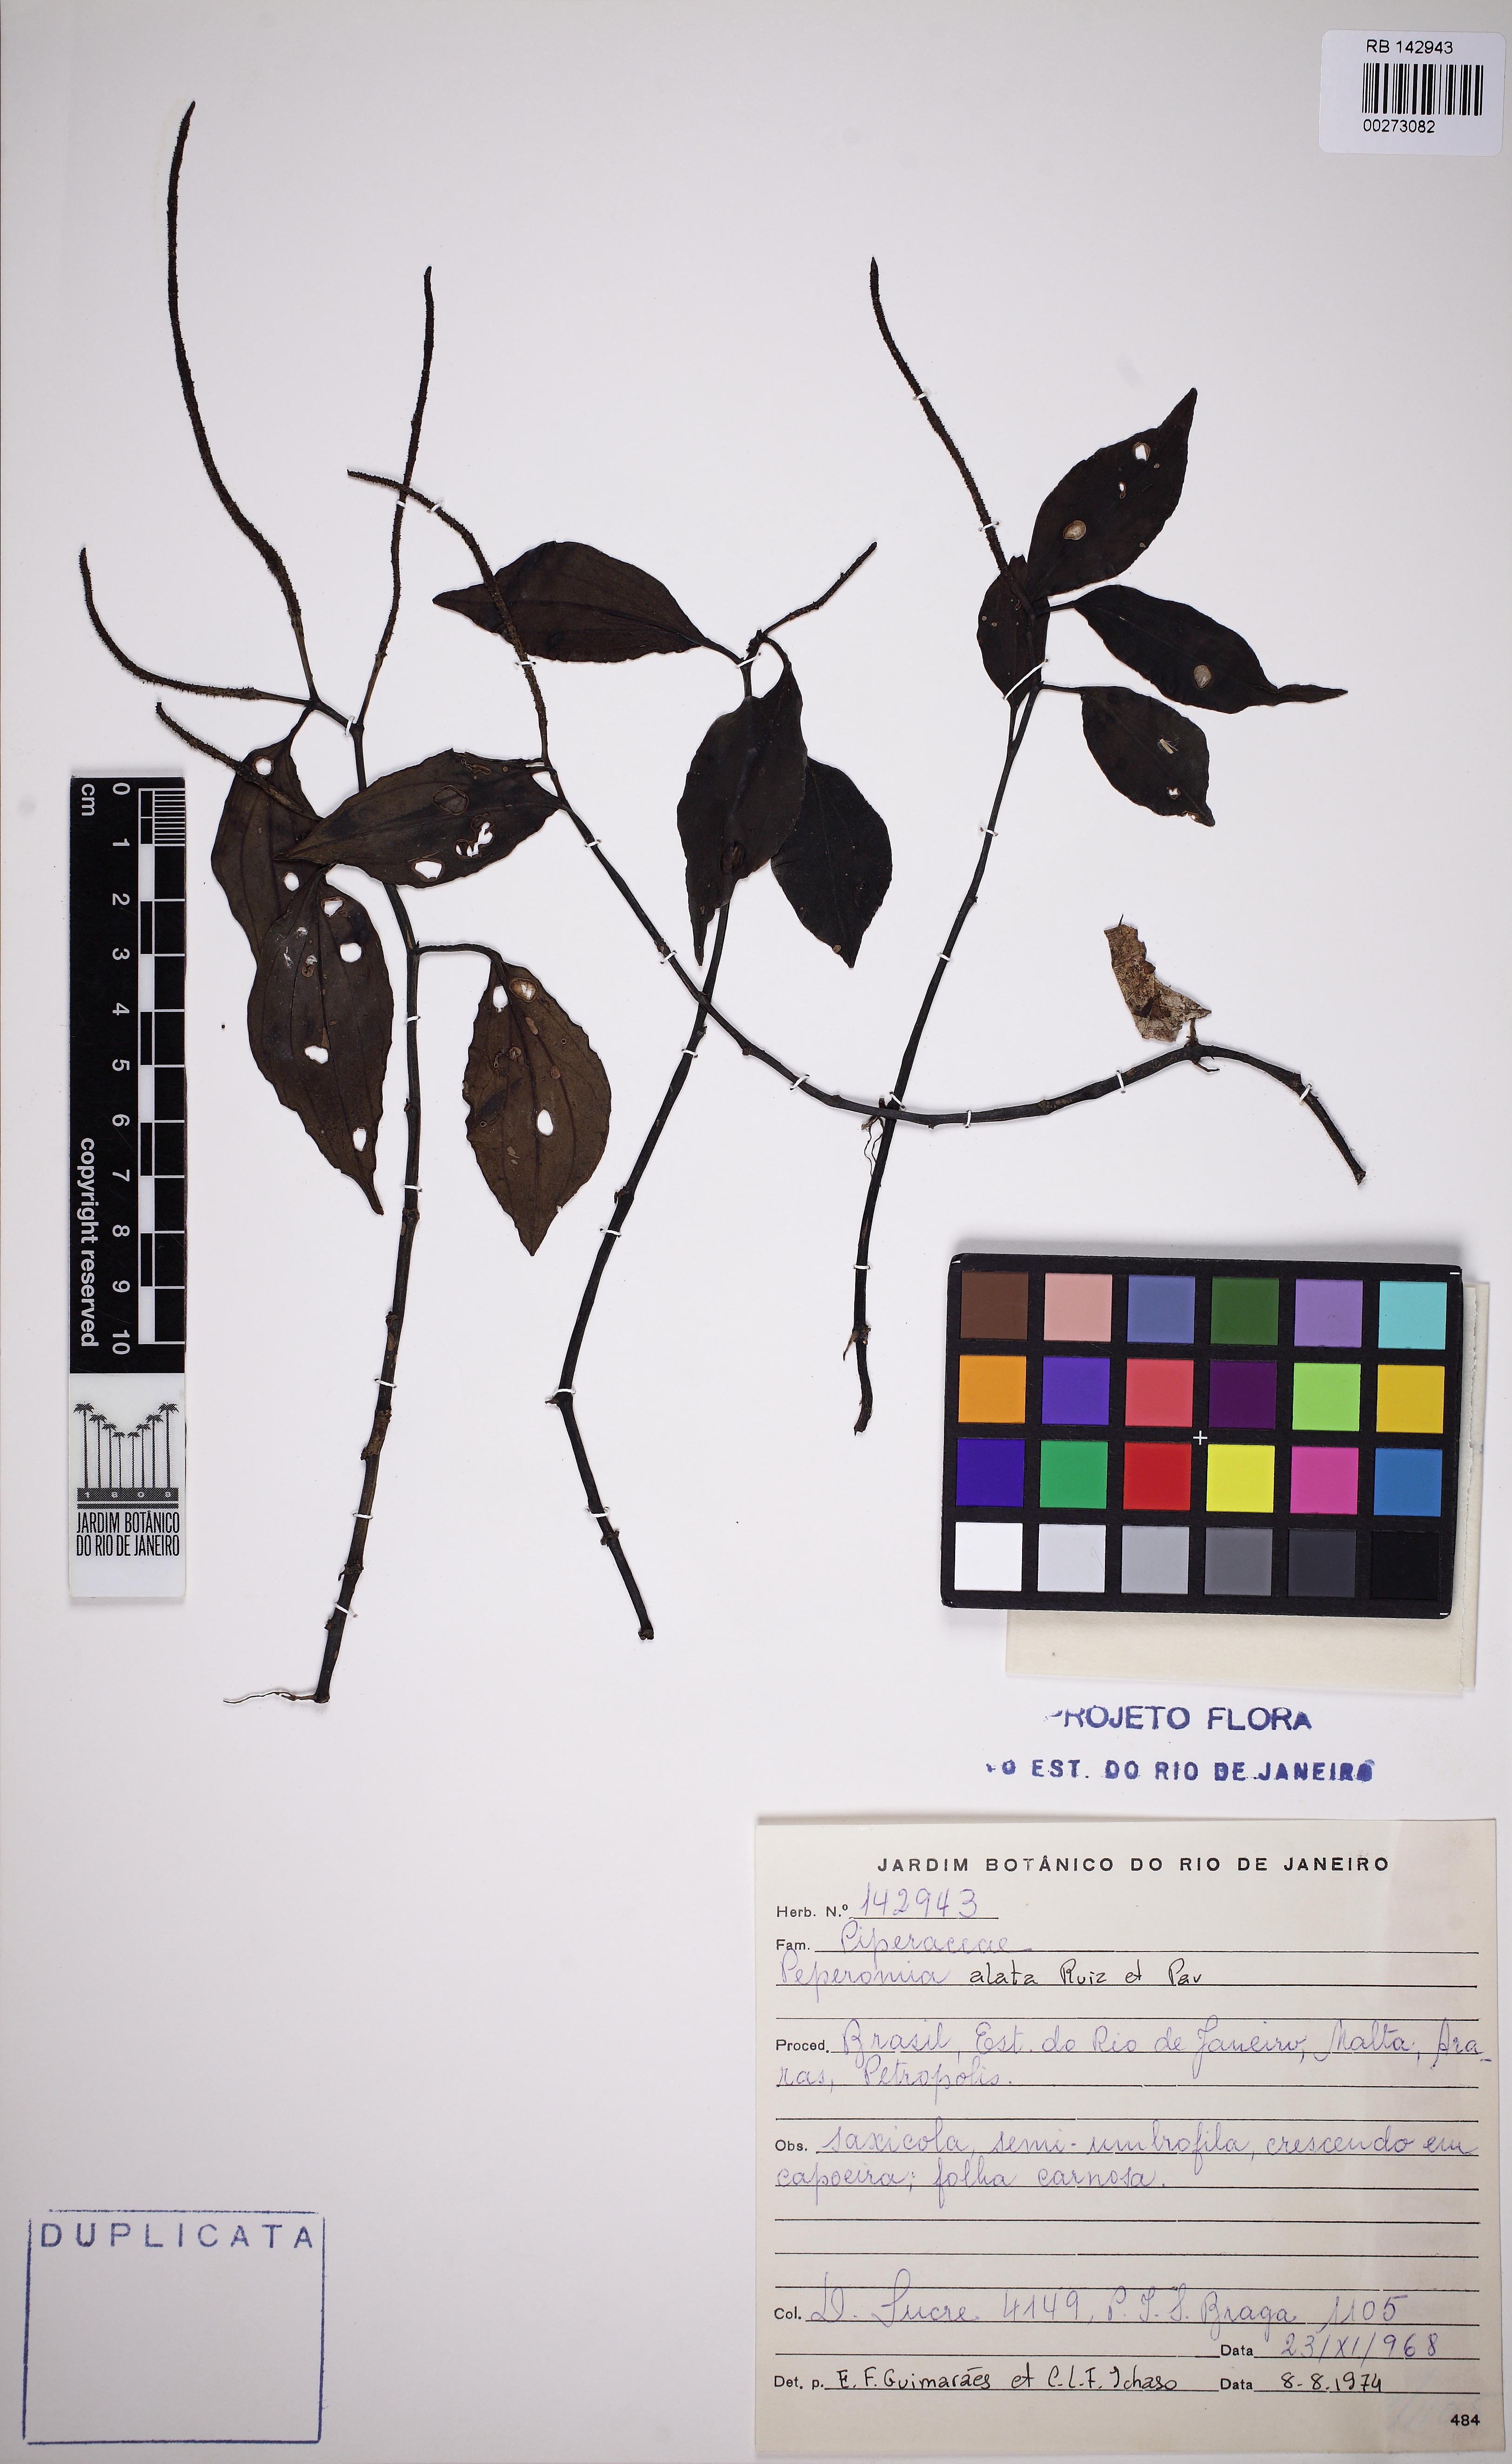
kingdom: Plantae
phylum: Tracheophyta
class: Magnoliopsida
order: Piperales
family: Piperaceae
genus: Peperomia
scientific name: Peperomia alata
